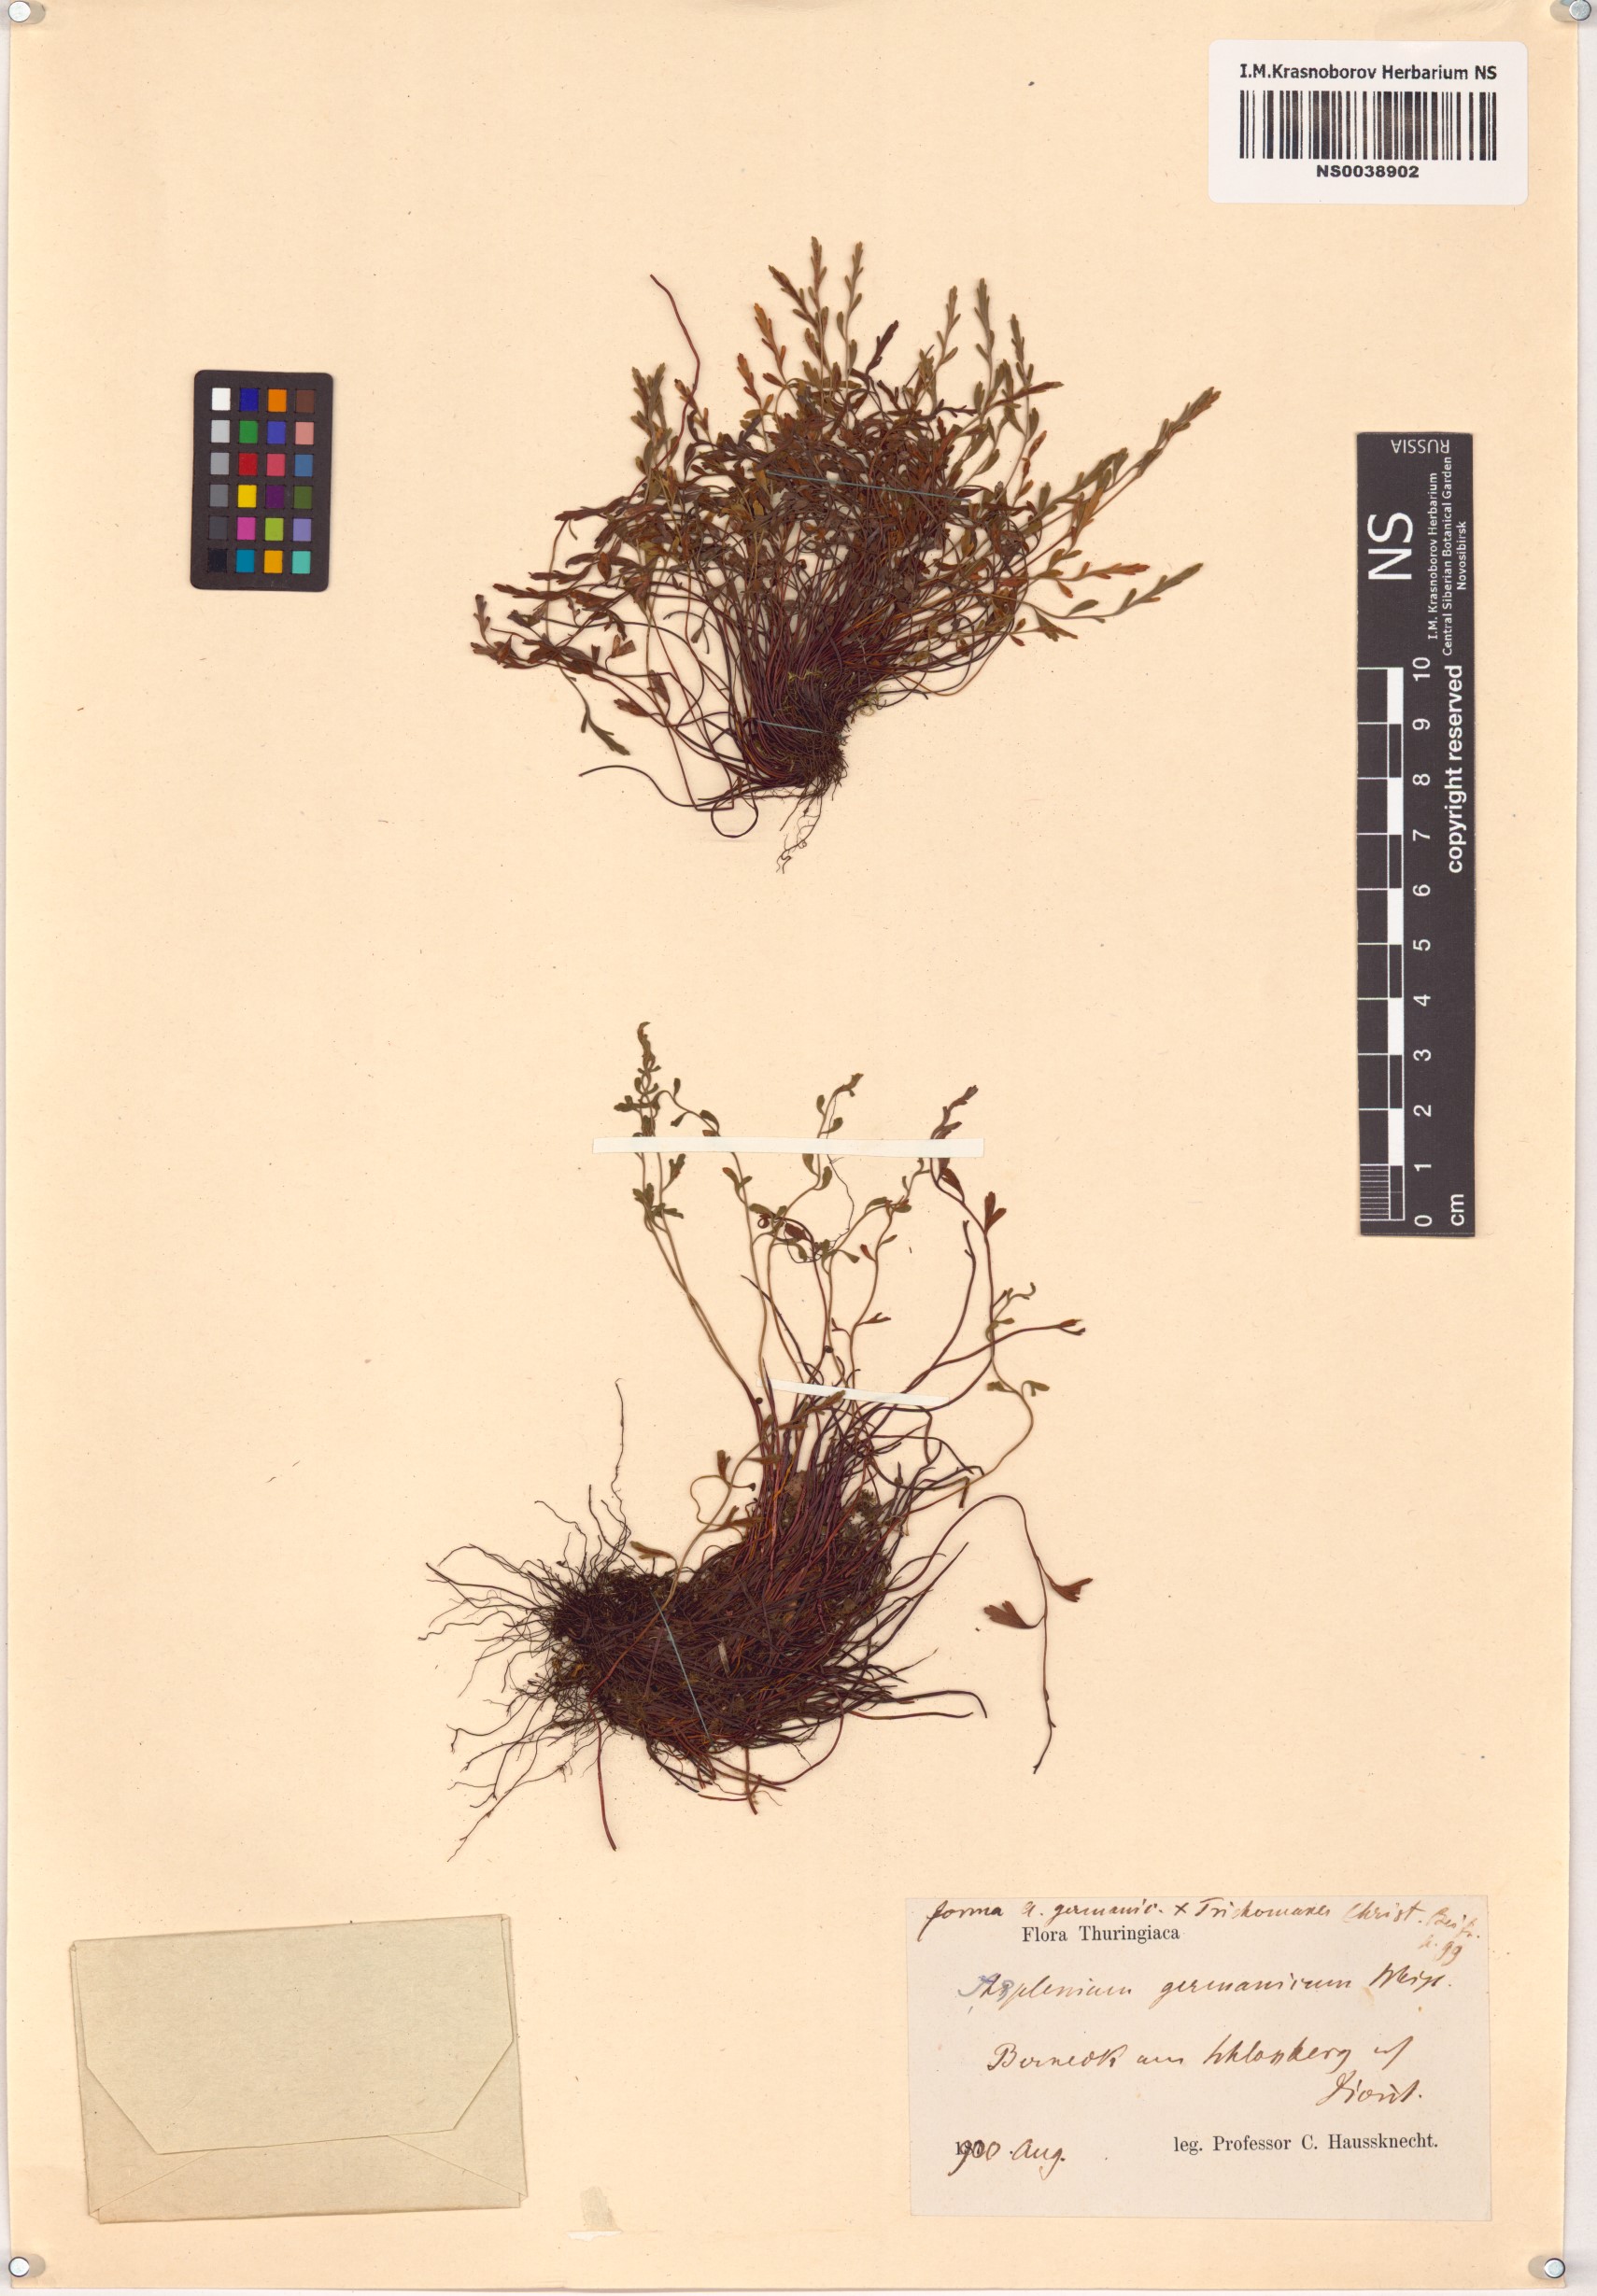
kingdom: Plantae
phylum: Tracheophyta
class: Polypodiopsida
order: Polypodiales
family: Aspleniaceae
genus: Asplenium
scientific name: Asplenium
